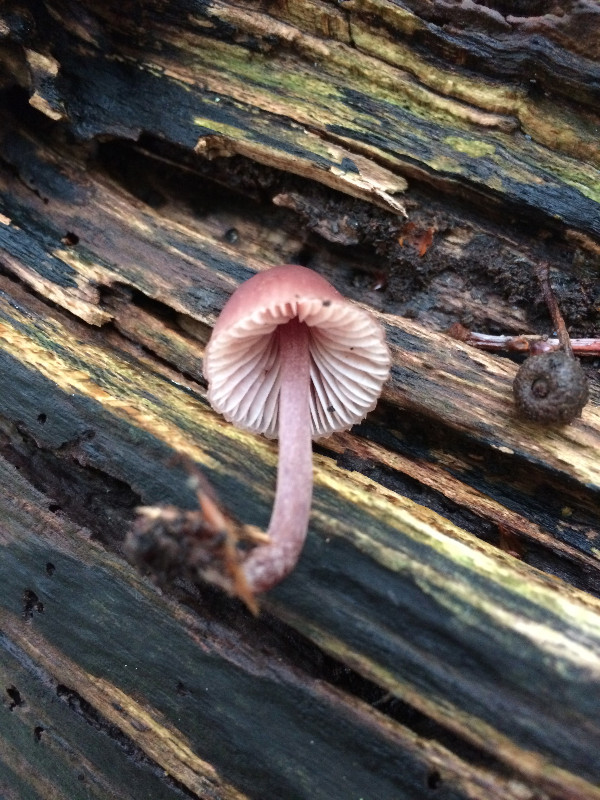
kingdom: Fungi
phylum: Basidiomycota
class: Agaricomycetes
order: Agaricales
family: Mycenaceae
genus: Mycena
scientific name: Mycena haematopus
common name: blødende huesvamp
